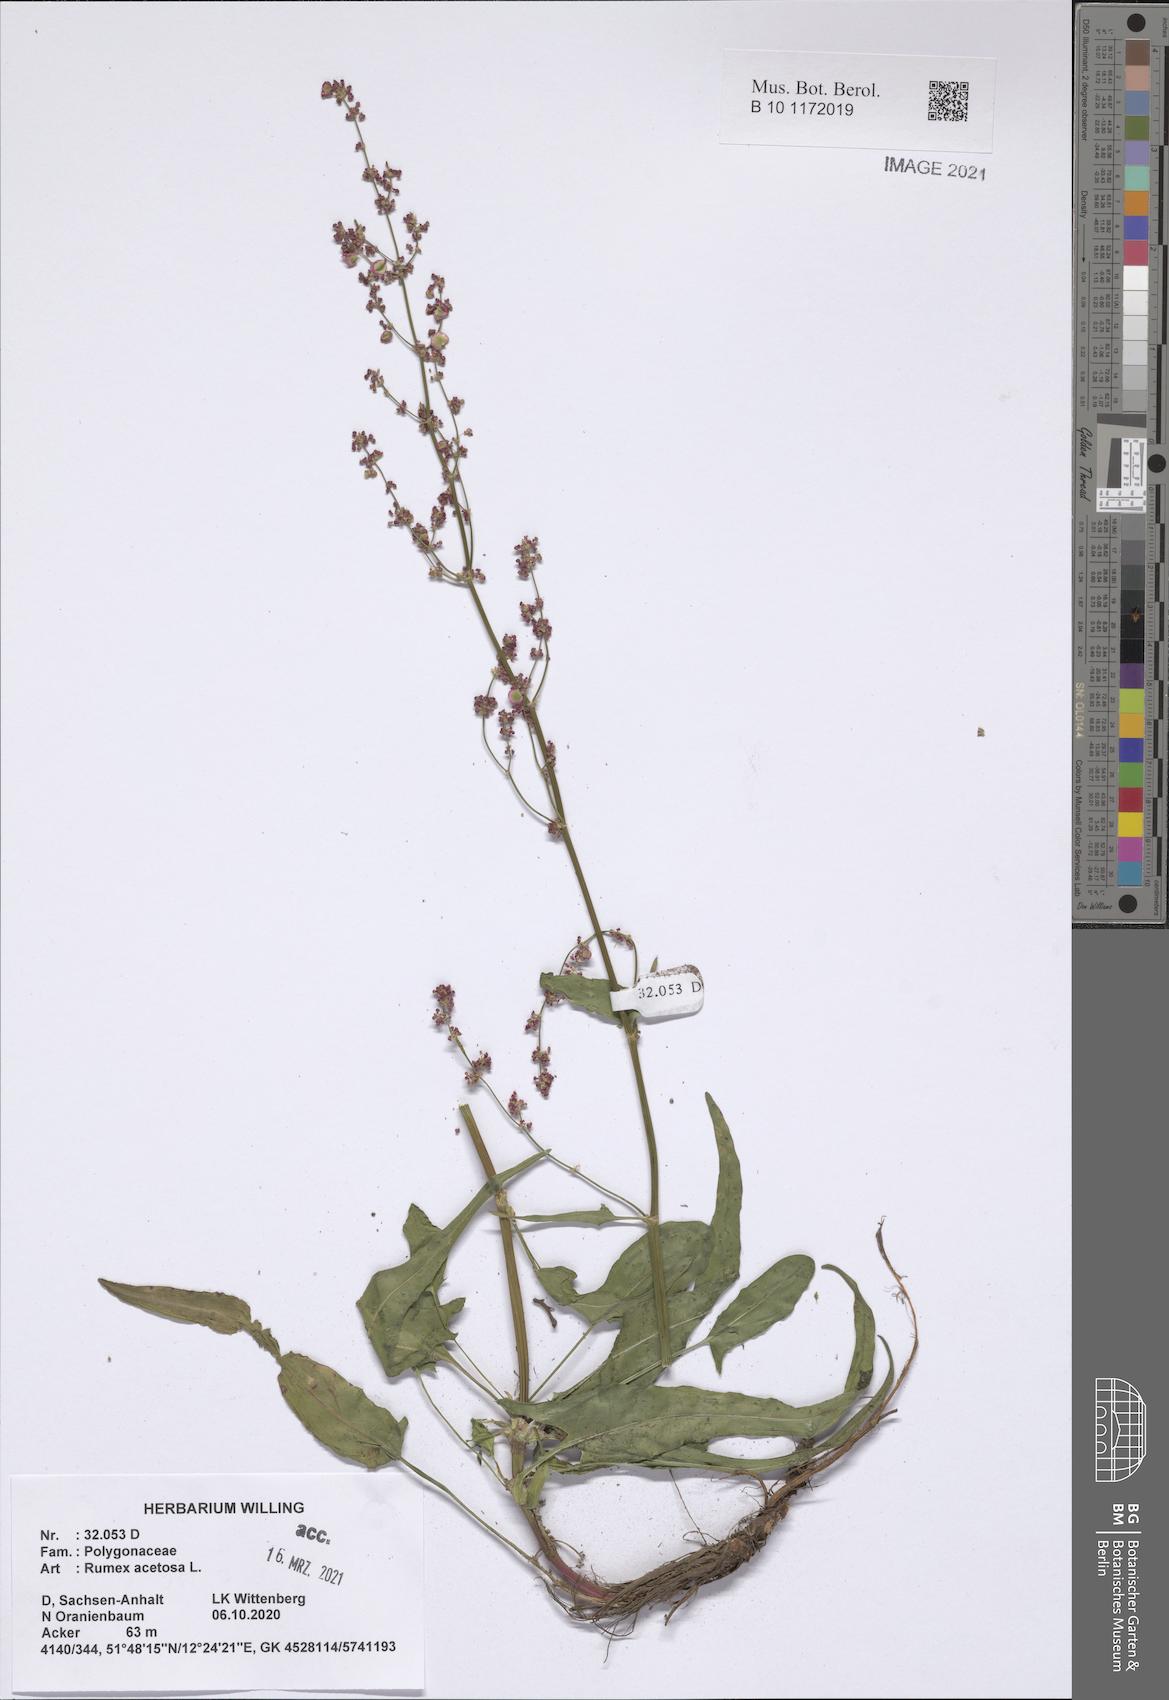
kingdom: Plantae
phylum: Tracheophyta
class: Magnoliopsida
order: Caryophyllales
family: Polygonaceae
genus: Rumex
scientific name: Rumex acetosa
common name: Garden sorrel
